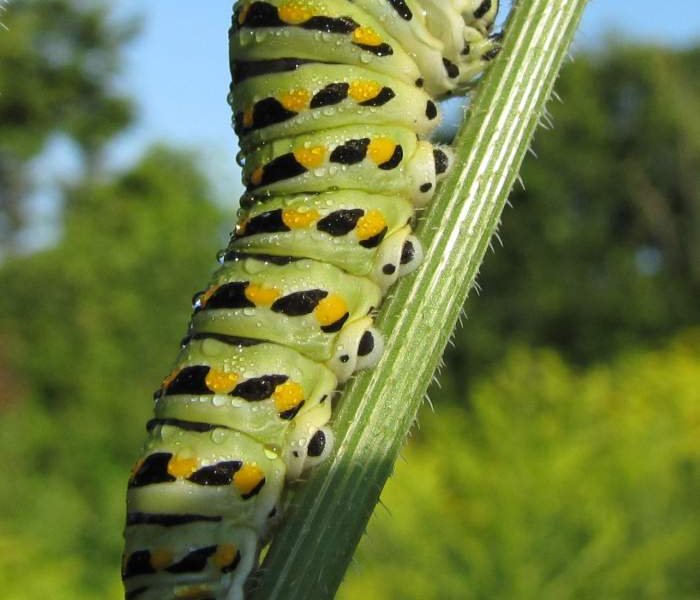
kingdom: Animalia
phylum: Arthropoda
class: Insecta
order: Lepidoptera
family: Papilionidae
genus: Papilio
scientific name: Papilio polyxenes
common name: Black Swallowtail
